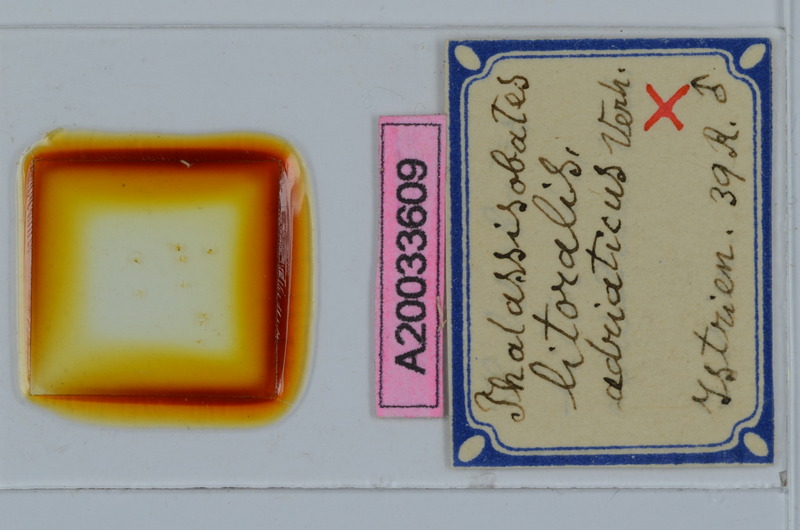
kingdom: Animalia
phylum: Arthropoda
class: Diplopoda
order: Julida
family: Nemasomatidae
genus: Thalassisobates
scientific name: Thalassisobates littoralis
